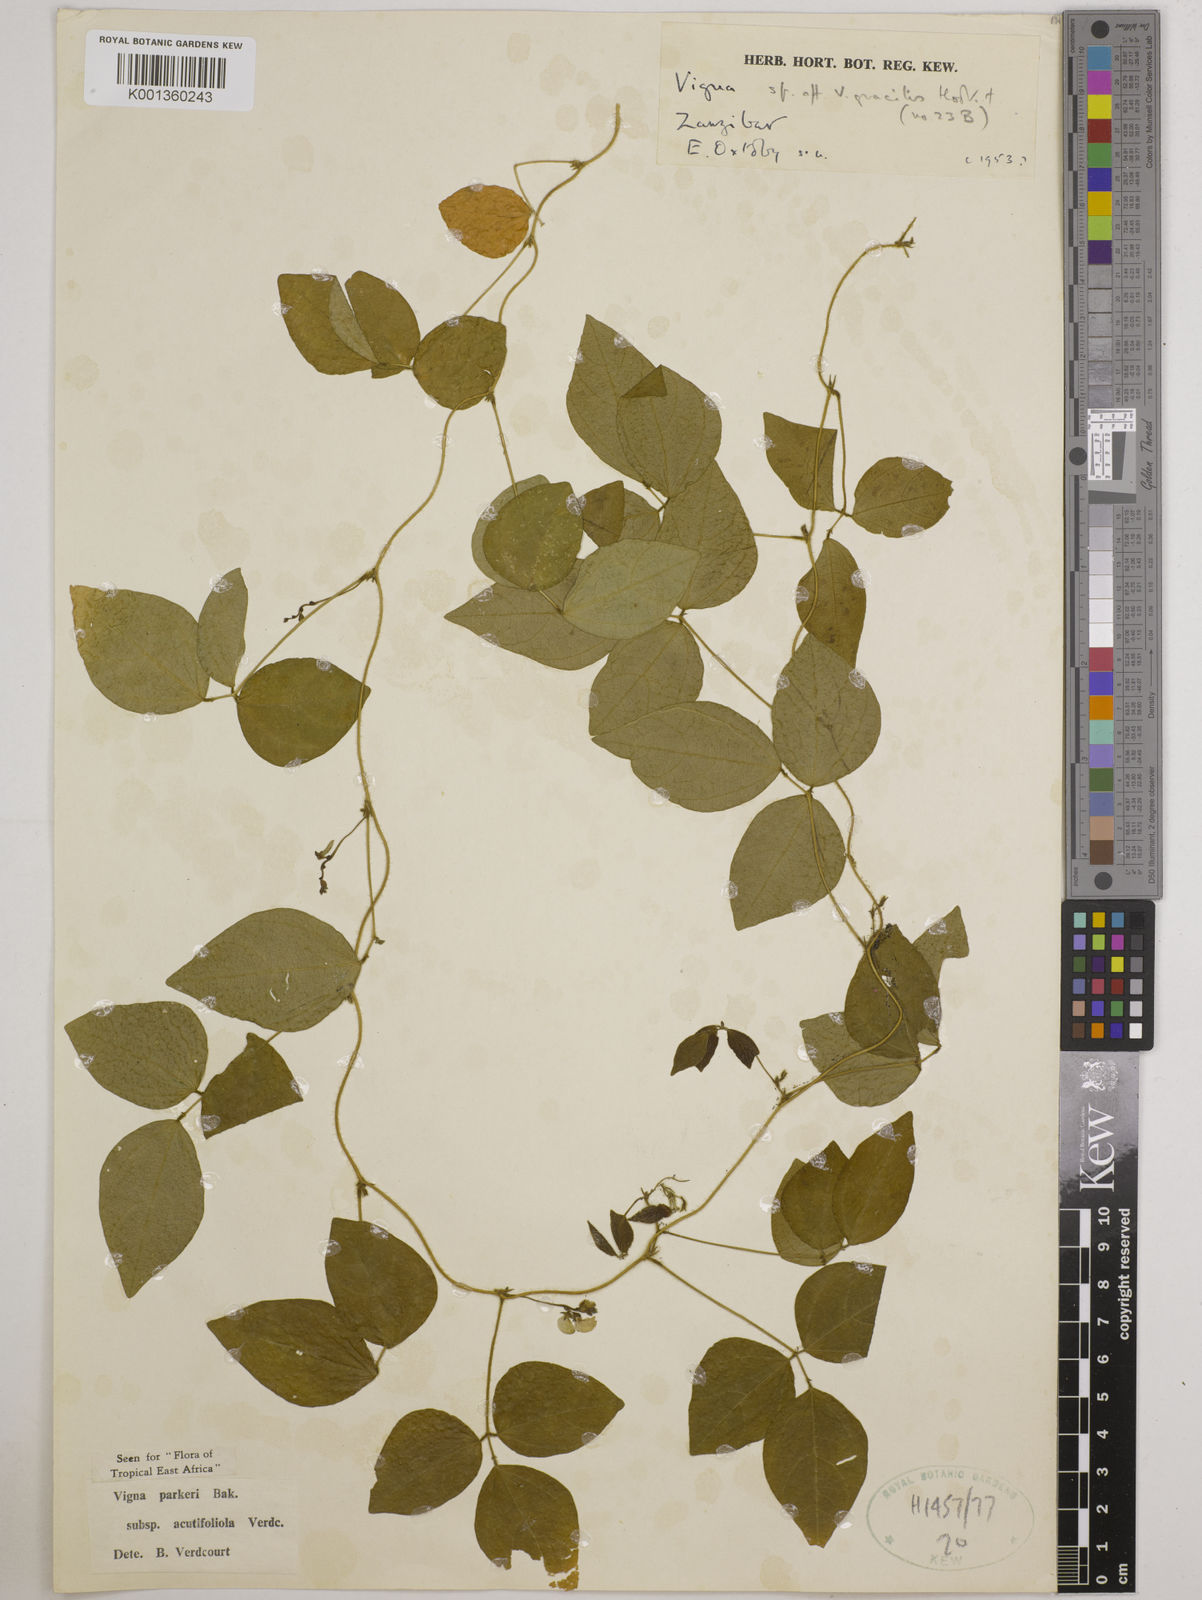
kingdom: Plantae
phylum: Tracheophyta
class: Magnoliopsida
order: Fabales
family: Fabaceae
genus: Vigna
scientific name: Vigna
